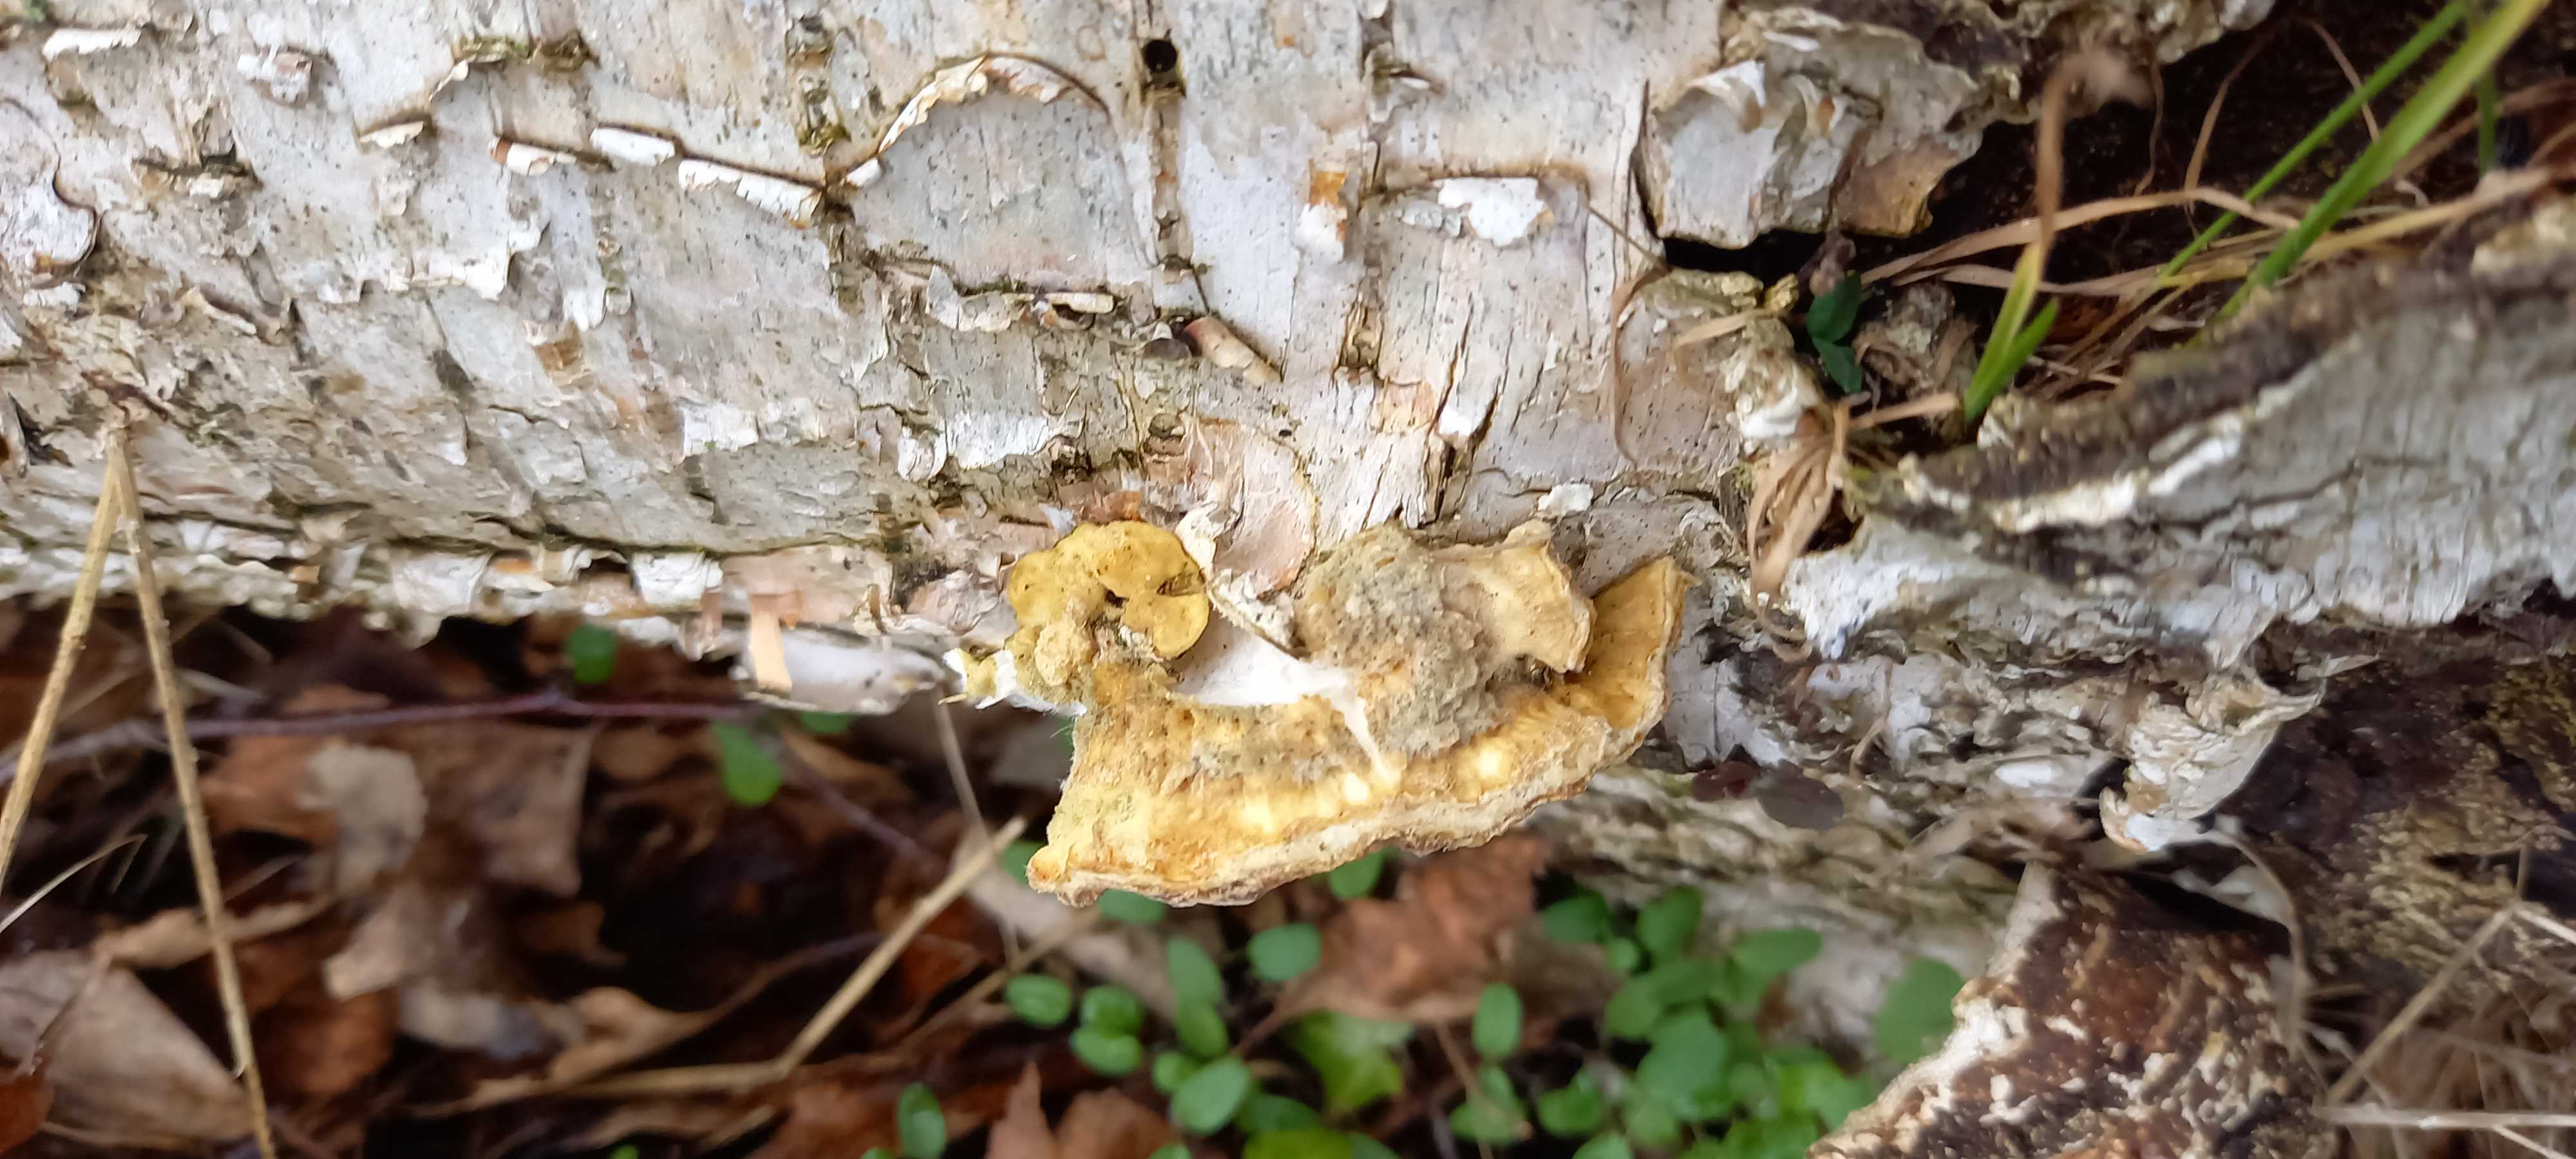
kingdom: Fungi
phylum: Basidiomycota
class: Agaricomycetes
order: Polyporales
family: Polyporaceae
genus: Trametes
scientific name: Trametes
